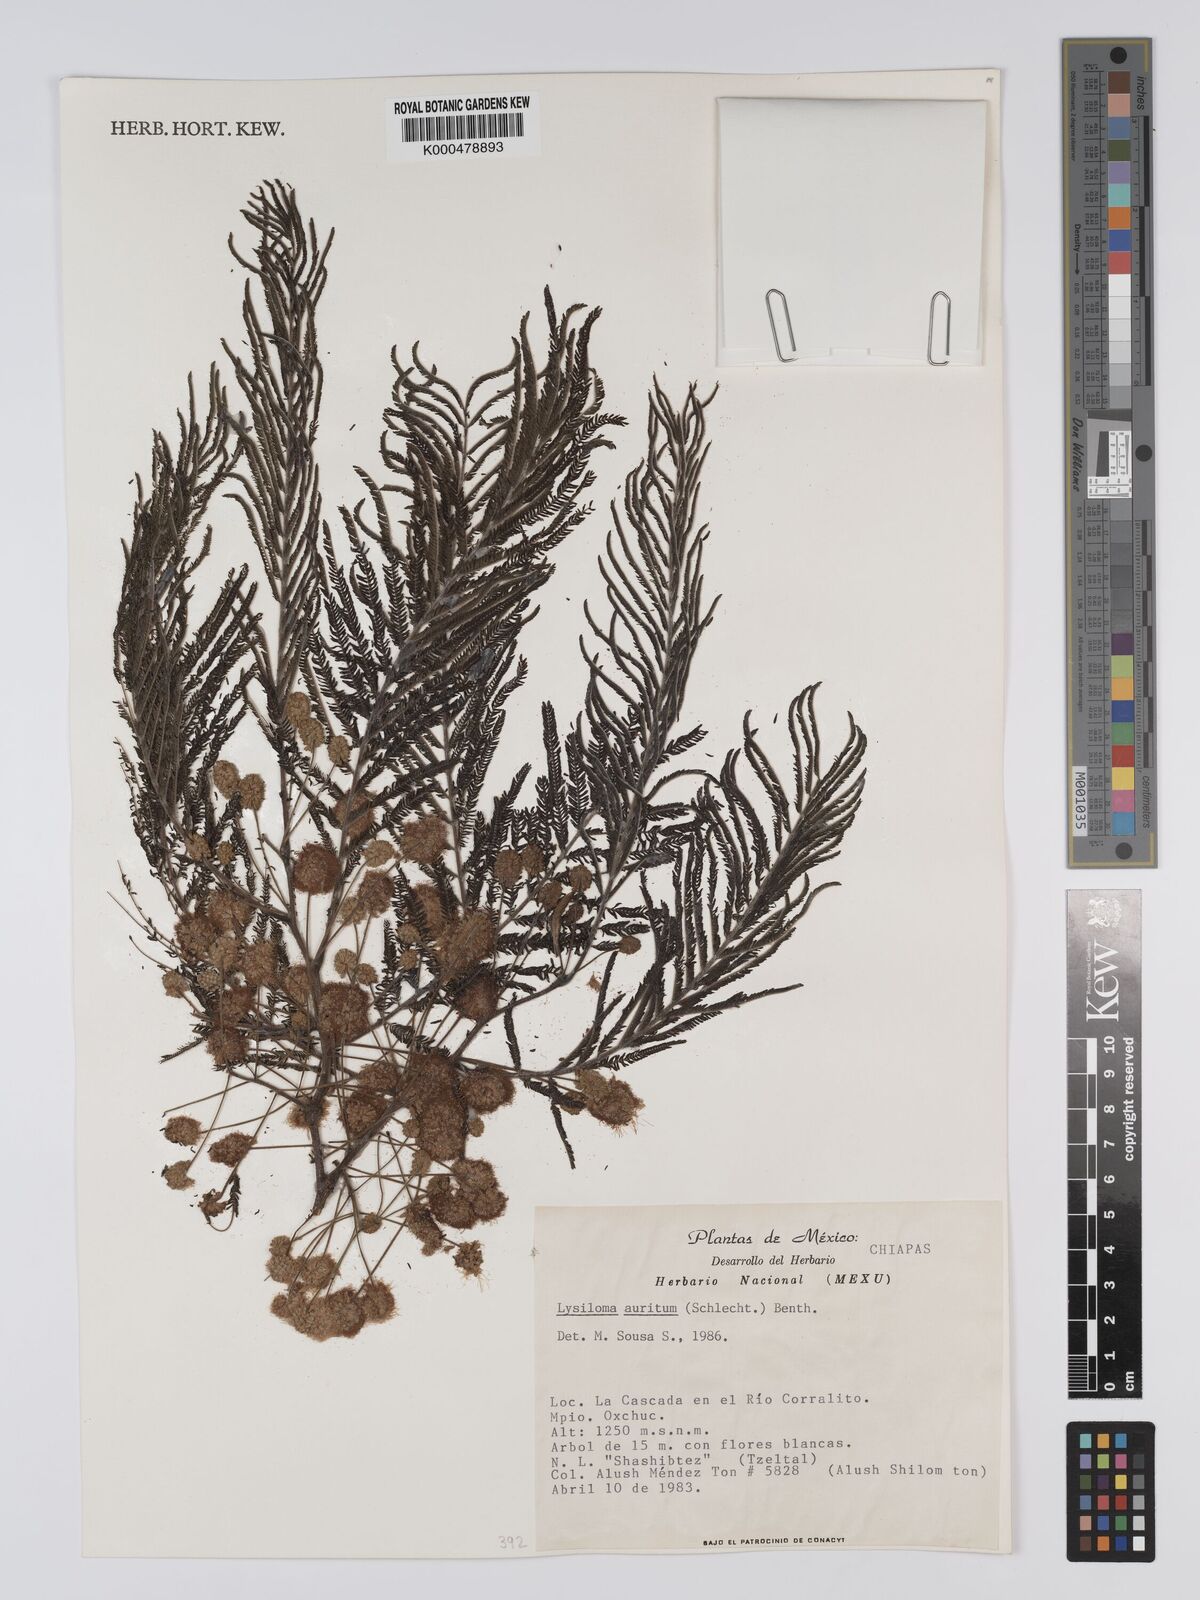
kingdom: Plantae
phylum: Tracheophyta
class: Magnoliopsida
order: Fabales
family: Fabaceae
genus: Lysiloma
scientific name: Lysiloma auritum
